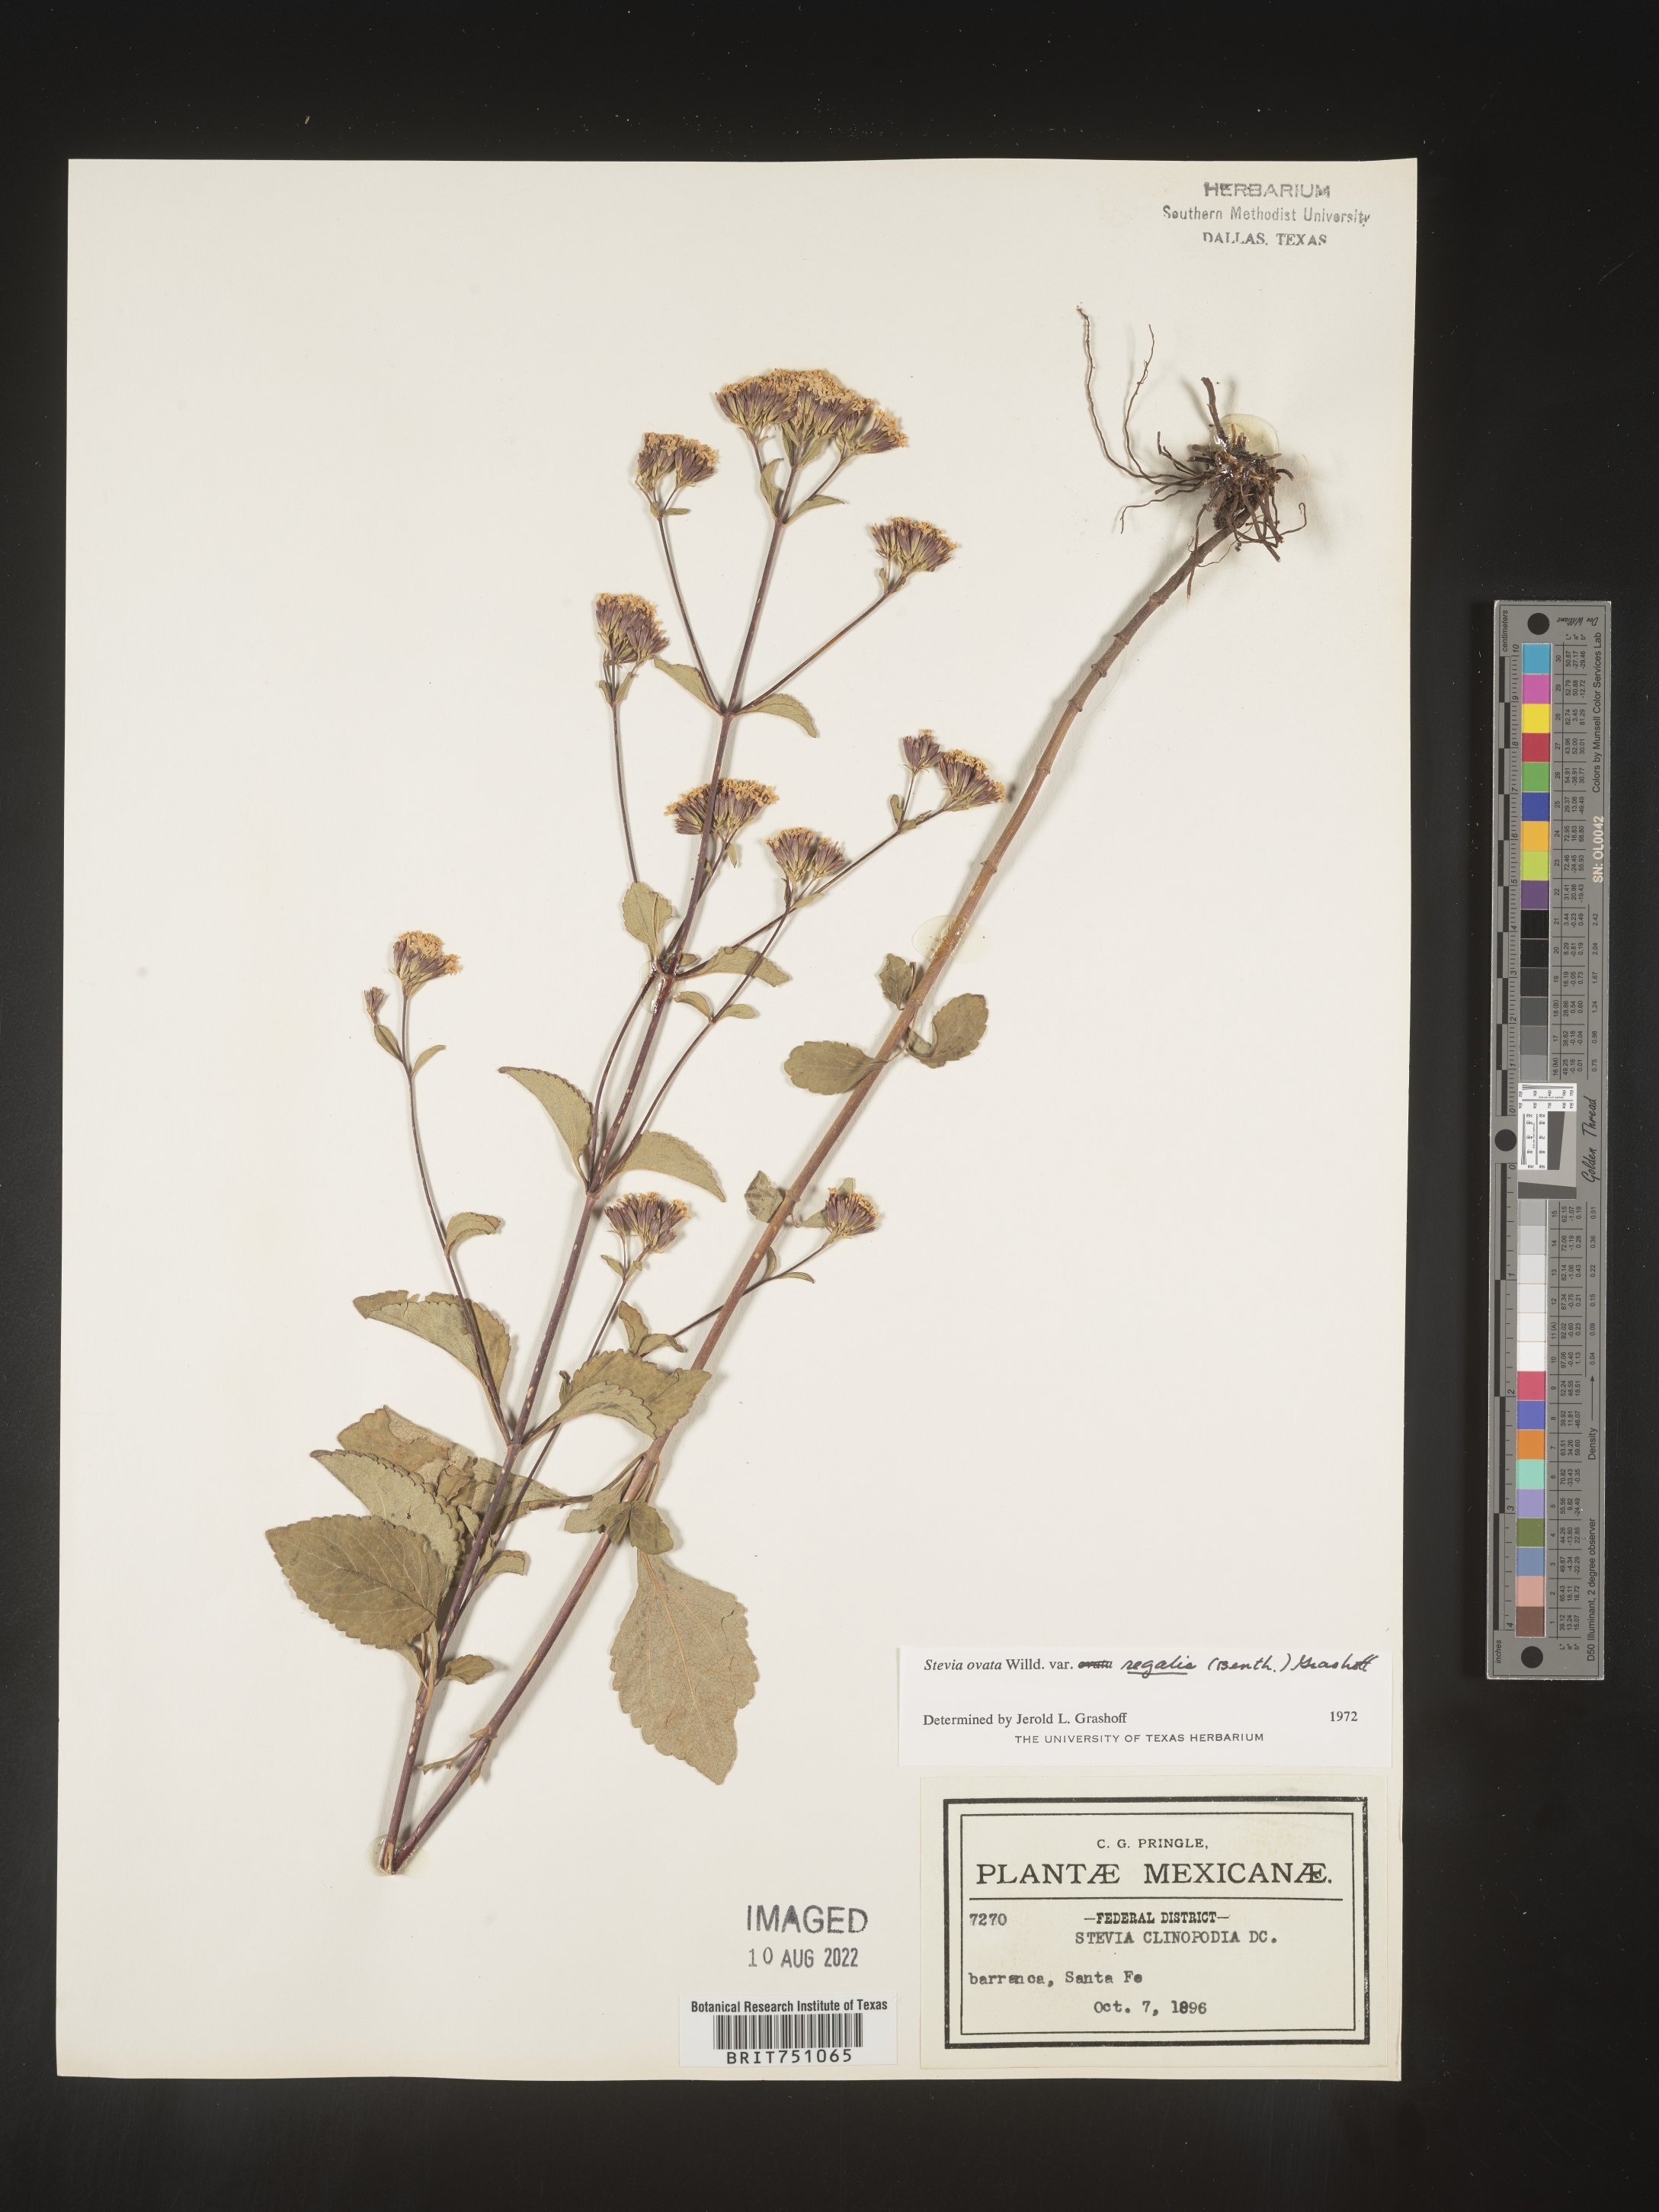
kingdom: Plantae
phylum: Tracheophyta
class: Magnoliopsida
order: Asterales
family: Asteraceae
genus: Stevia
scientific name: Stevia ovata
